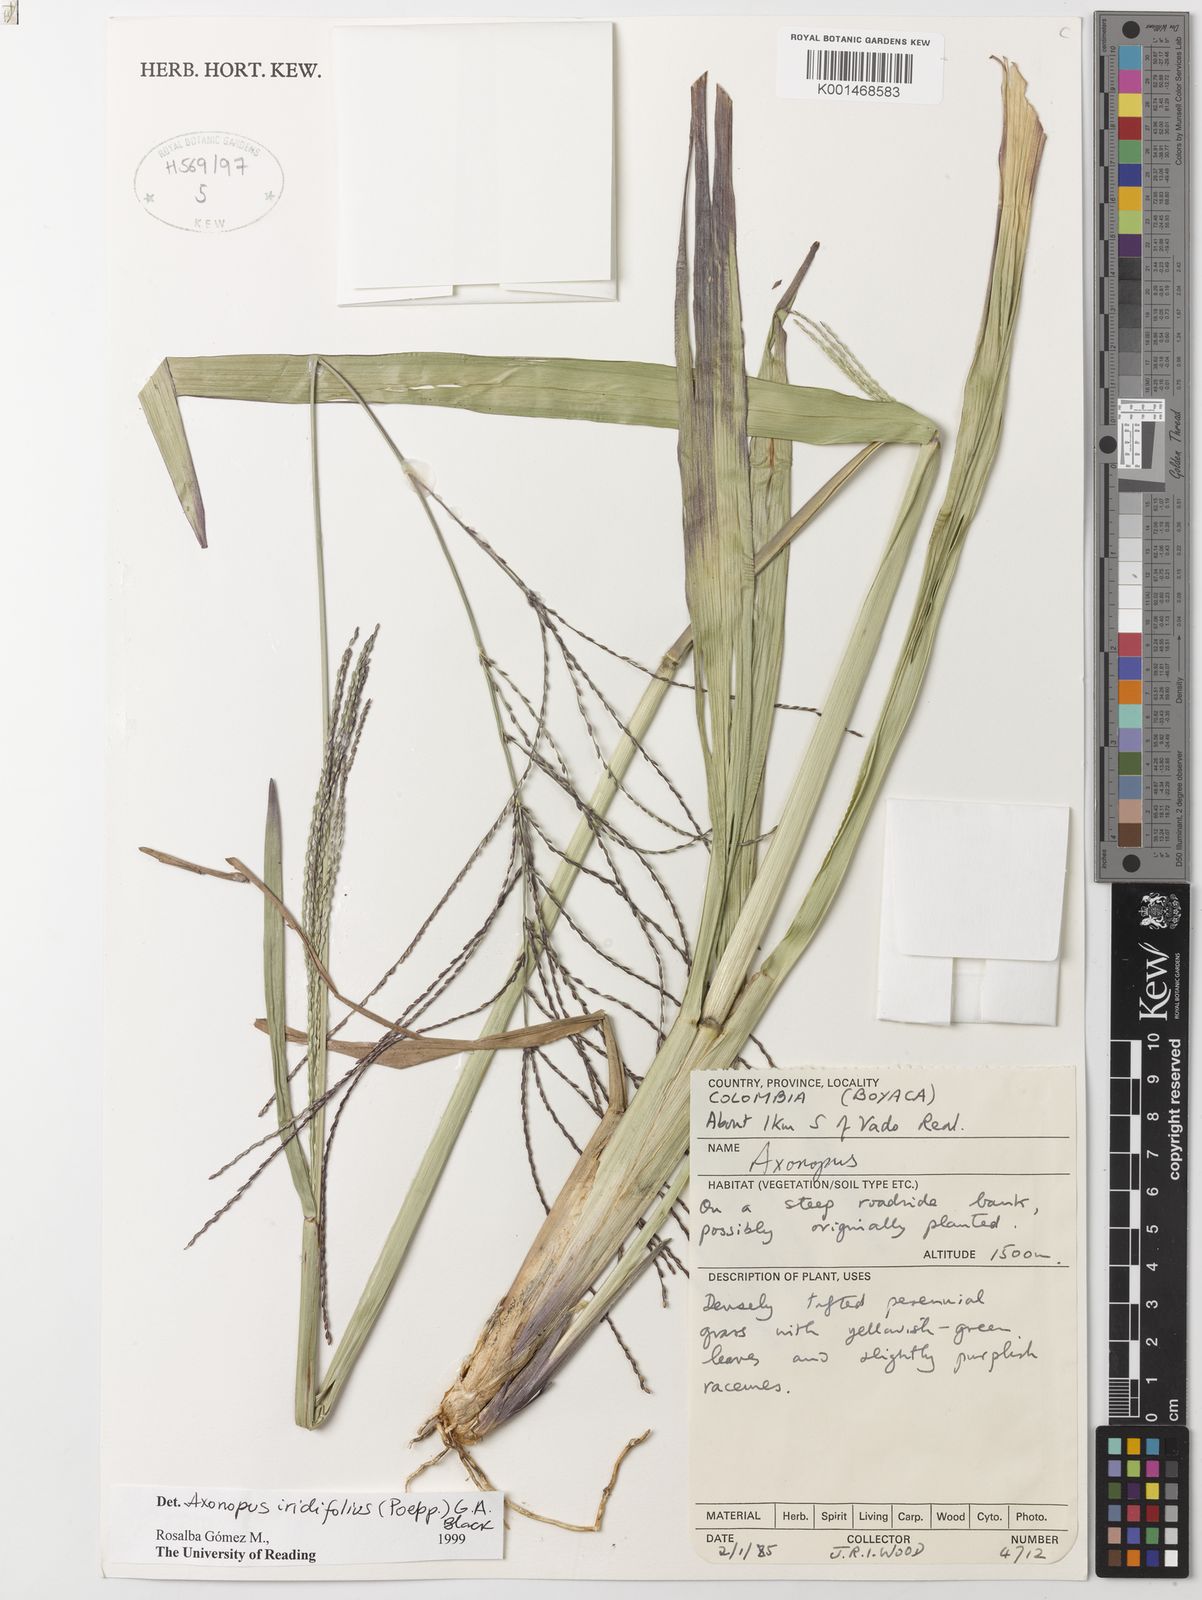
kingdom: Plantae
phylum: Tracheophyta
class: Liliopsida
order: Poales
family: Poaceae
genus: Axonopus
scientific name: Axonopus scoparius
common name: Imperial grass
